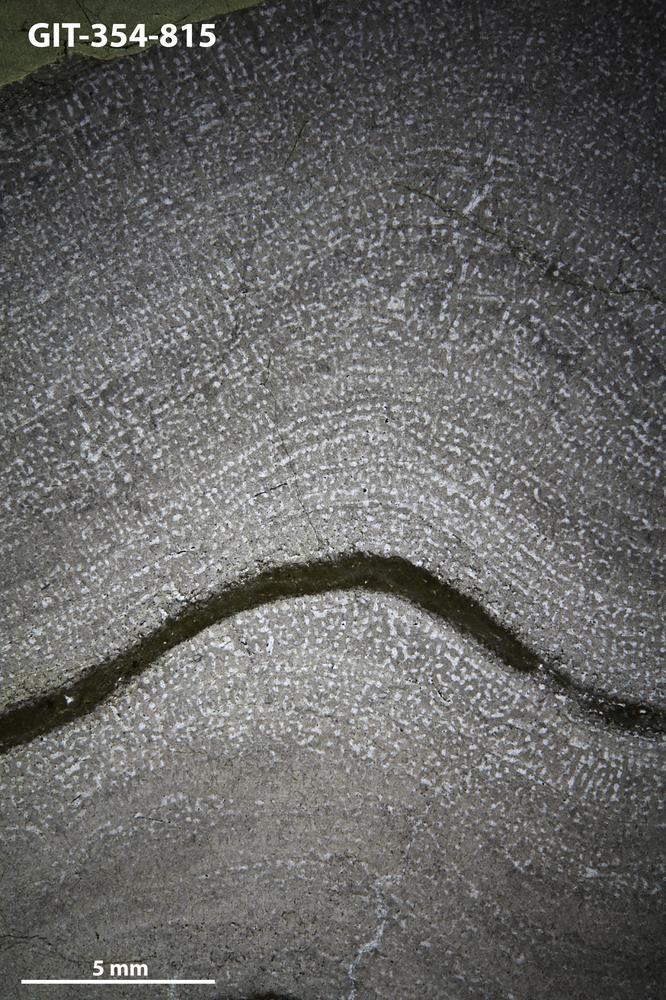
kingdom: Animalia
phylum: Porifera
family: Stromatoporidae
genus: Stromatopora
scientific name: Stromatopora
